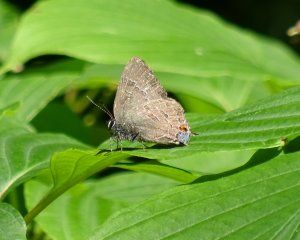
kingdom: Animalia
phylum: Arthropoda
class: Insecta
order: Lepidoptera
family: Lycaenidae
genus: Satyrium
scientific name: Satyrium calanus
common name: Banded Hairstreak
